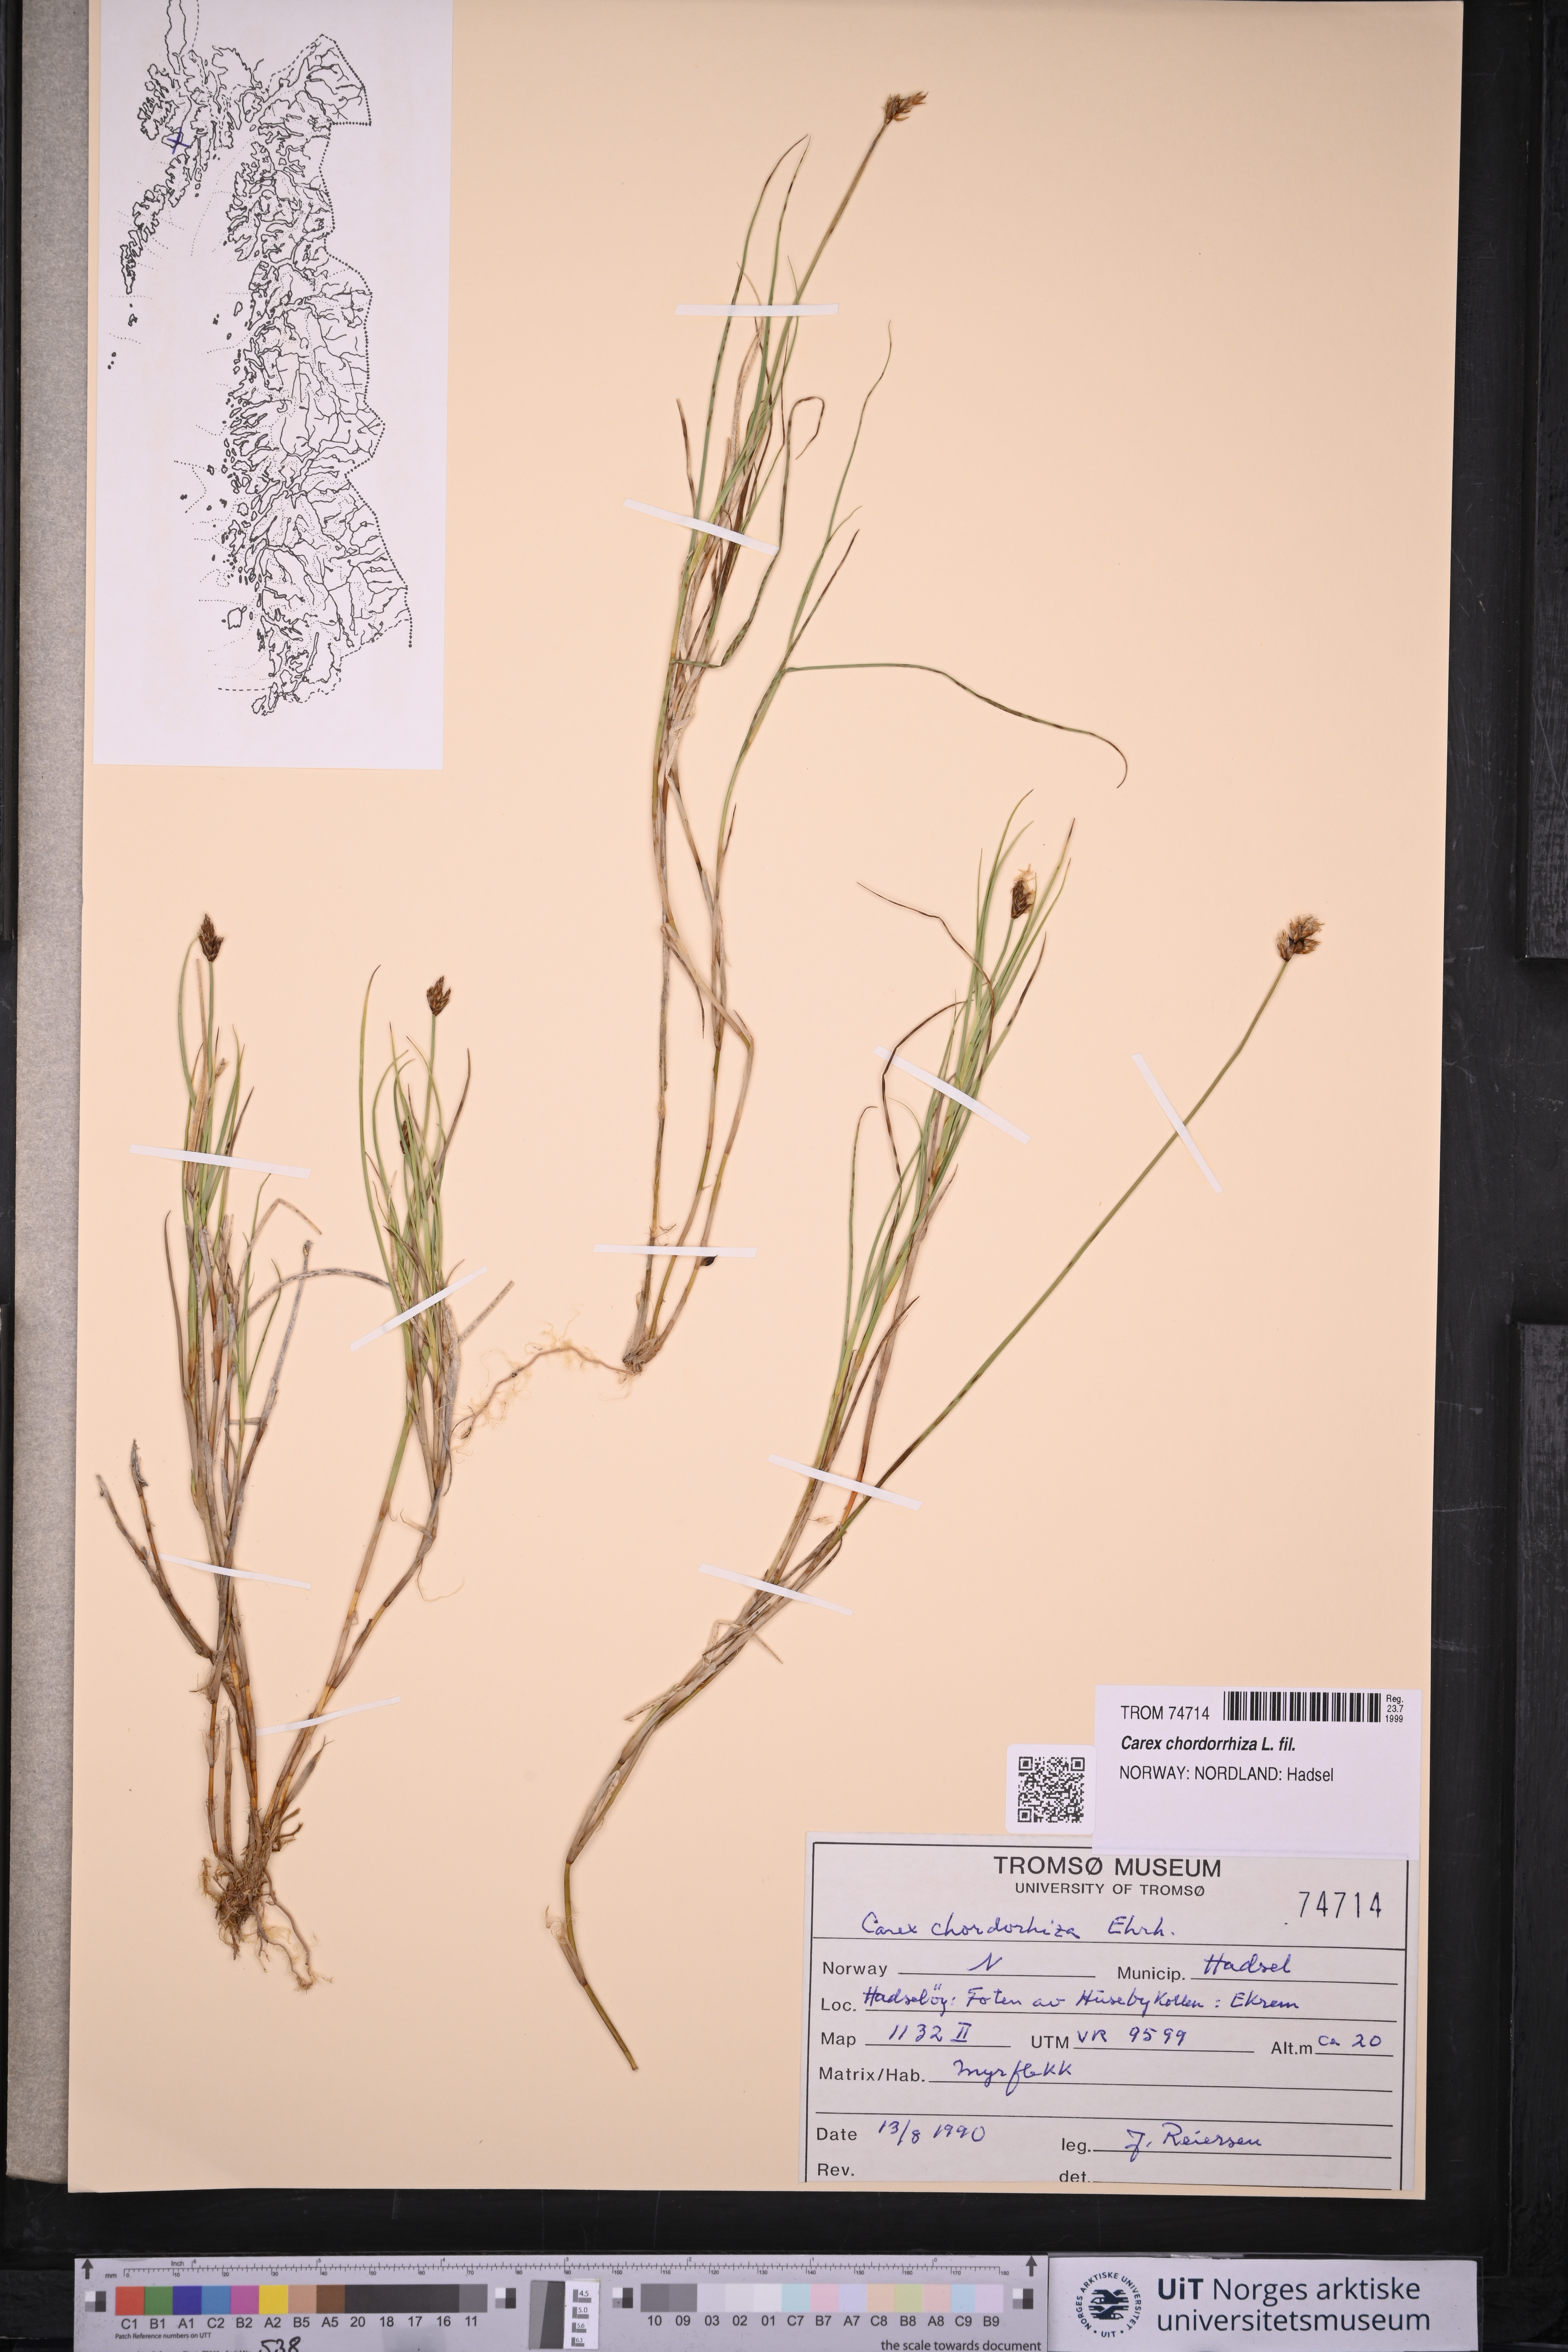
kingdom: Plantae
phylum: Tracheophyta
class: Liliopsida
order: Poales
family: Cyperaceae
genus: Carex
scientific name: Carex chordorrhiza
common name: String sedge
